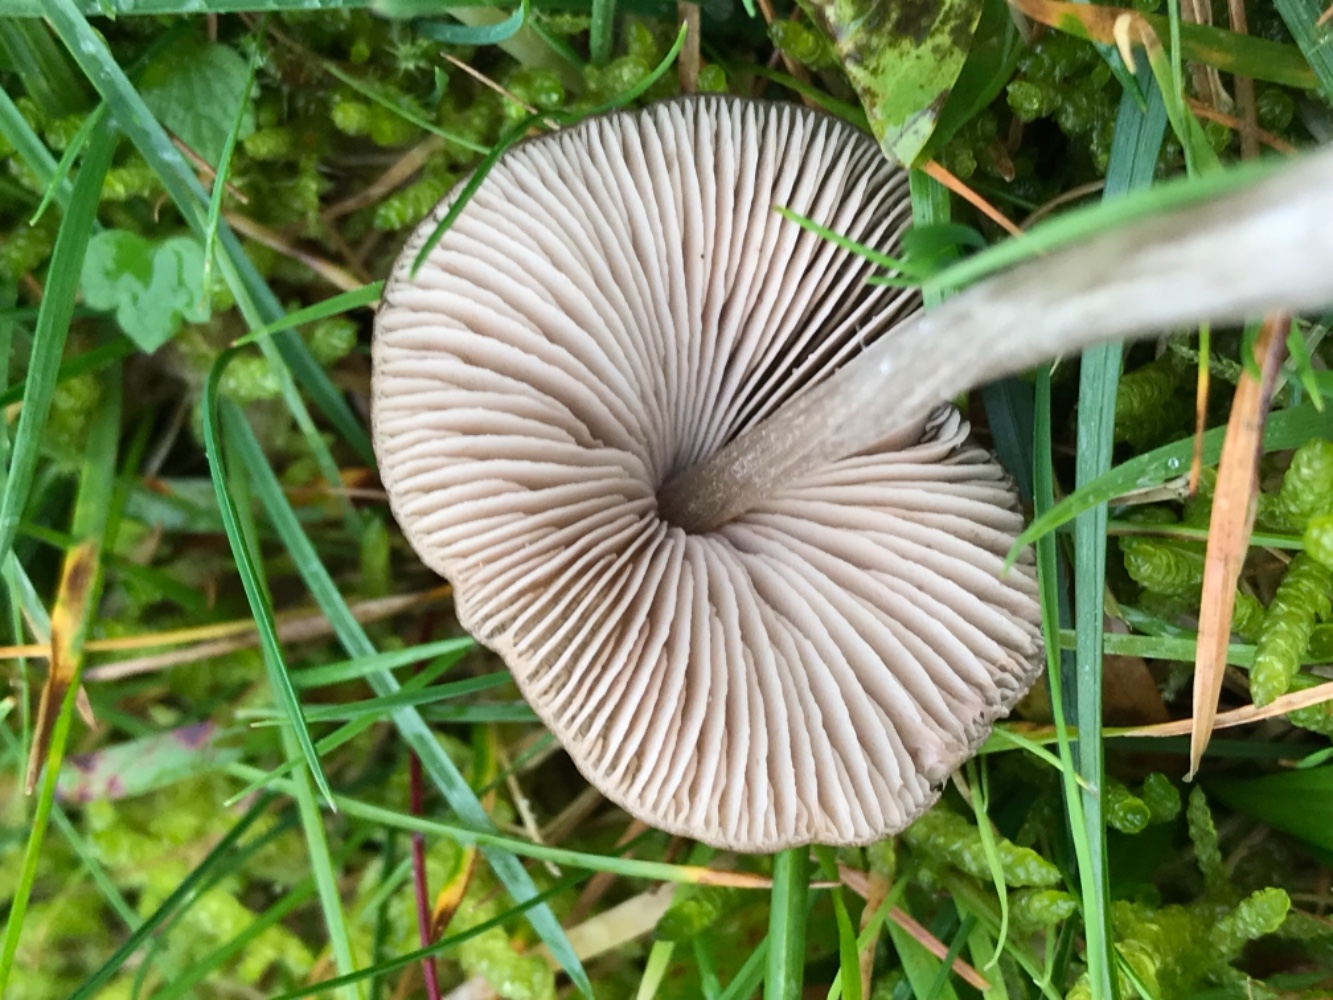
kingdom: Fungi
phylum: Basidiomycota
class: Agaricomycetes
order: Agaricales
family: Entolomataceae
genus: Entoloma
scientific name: Entoloma conferendum
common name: stjernesporet rødblad
